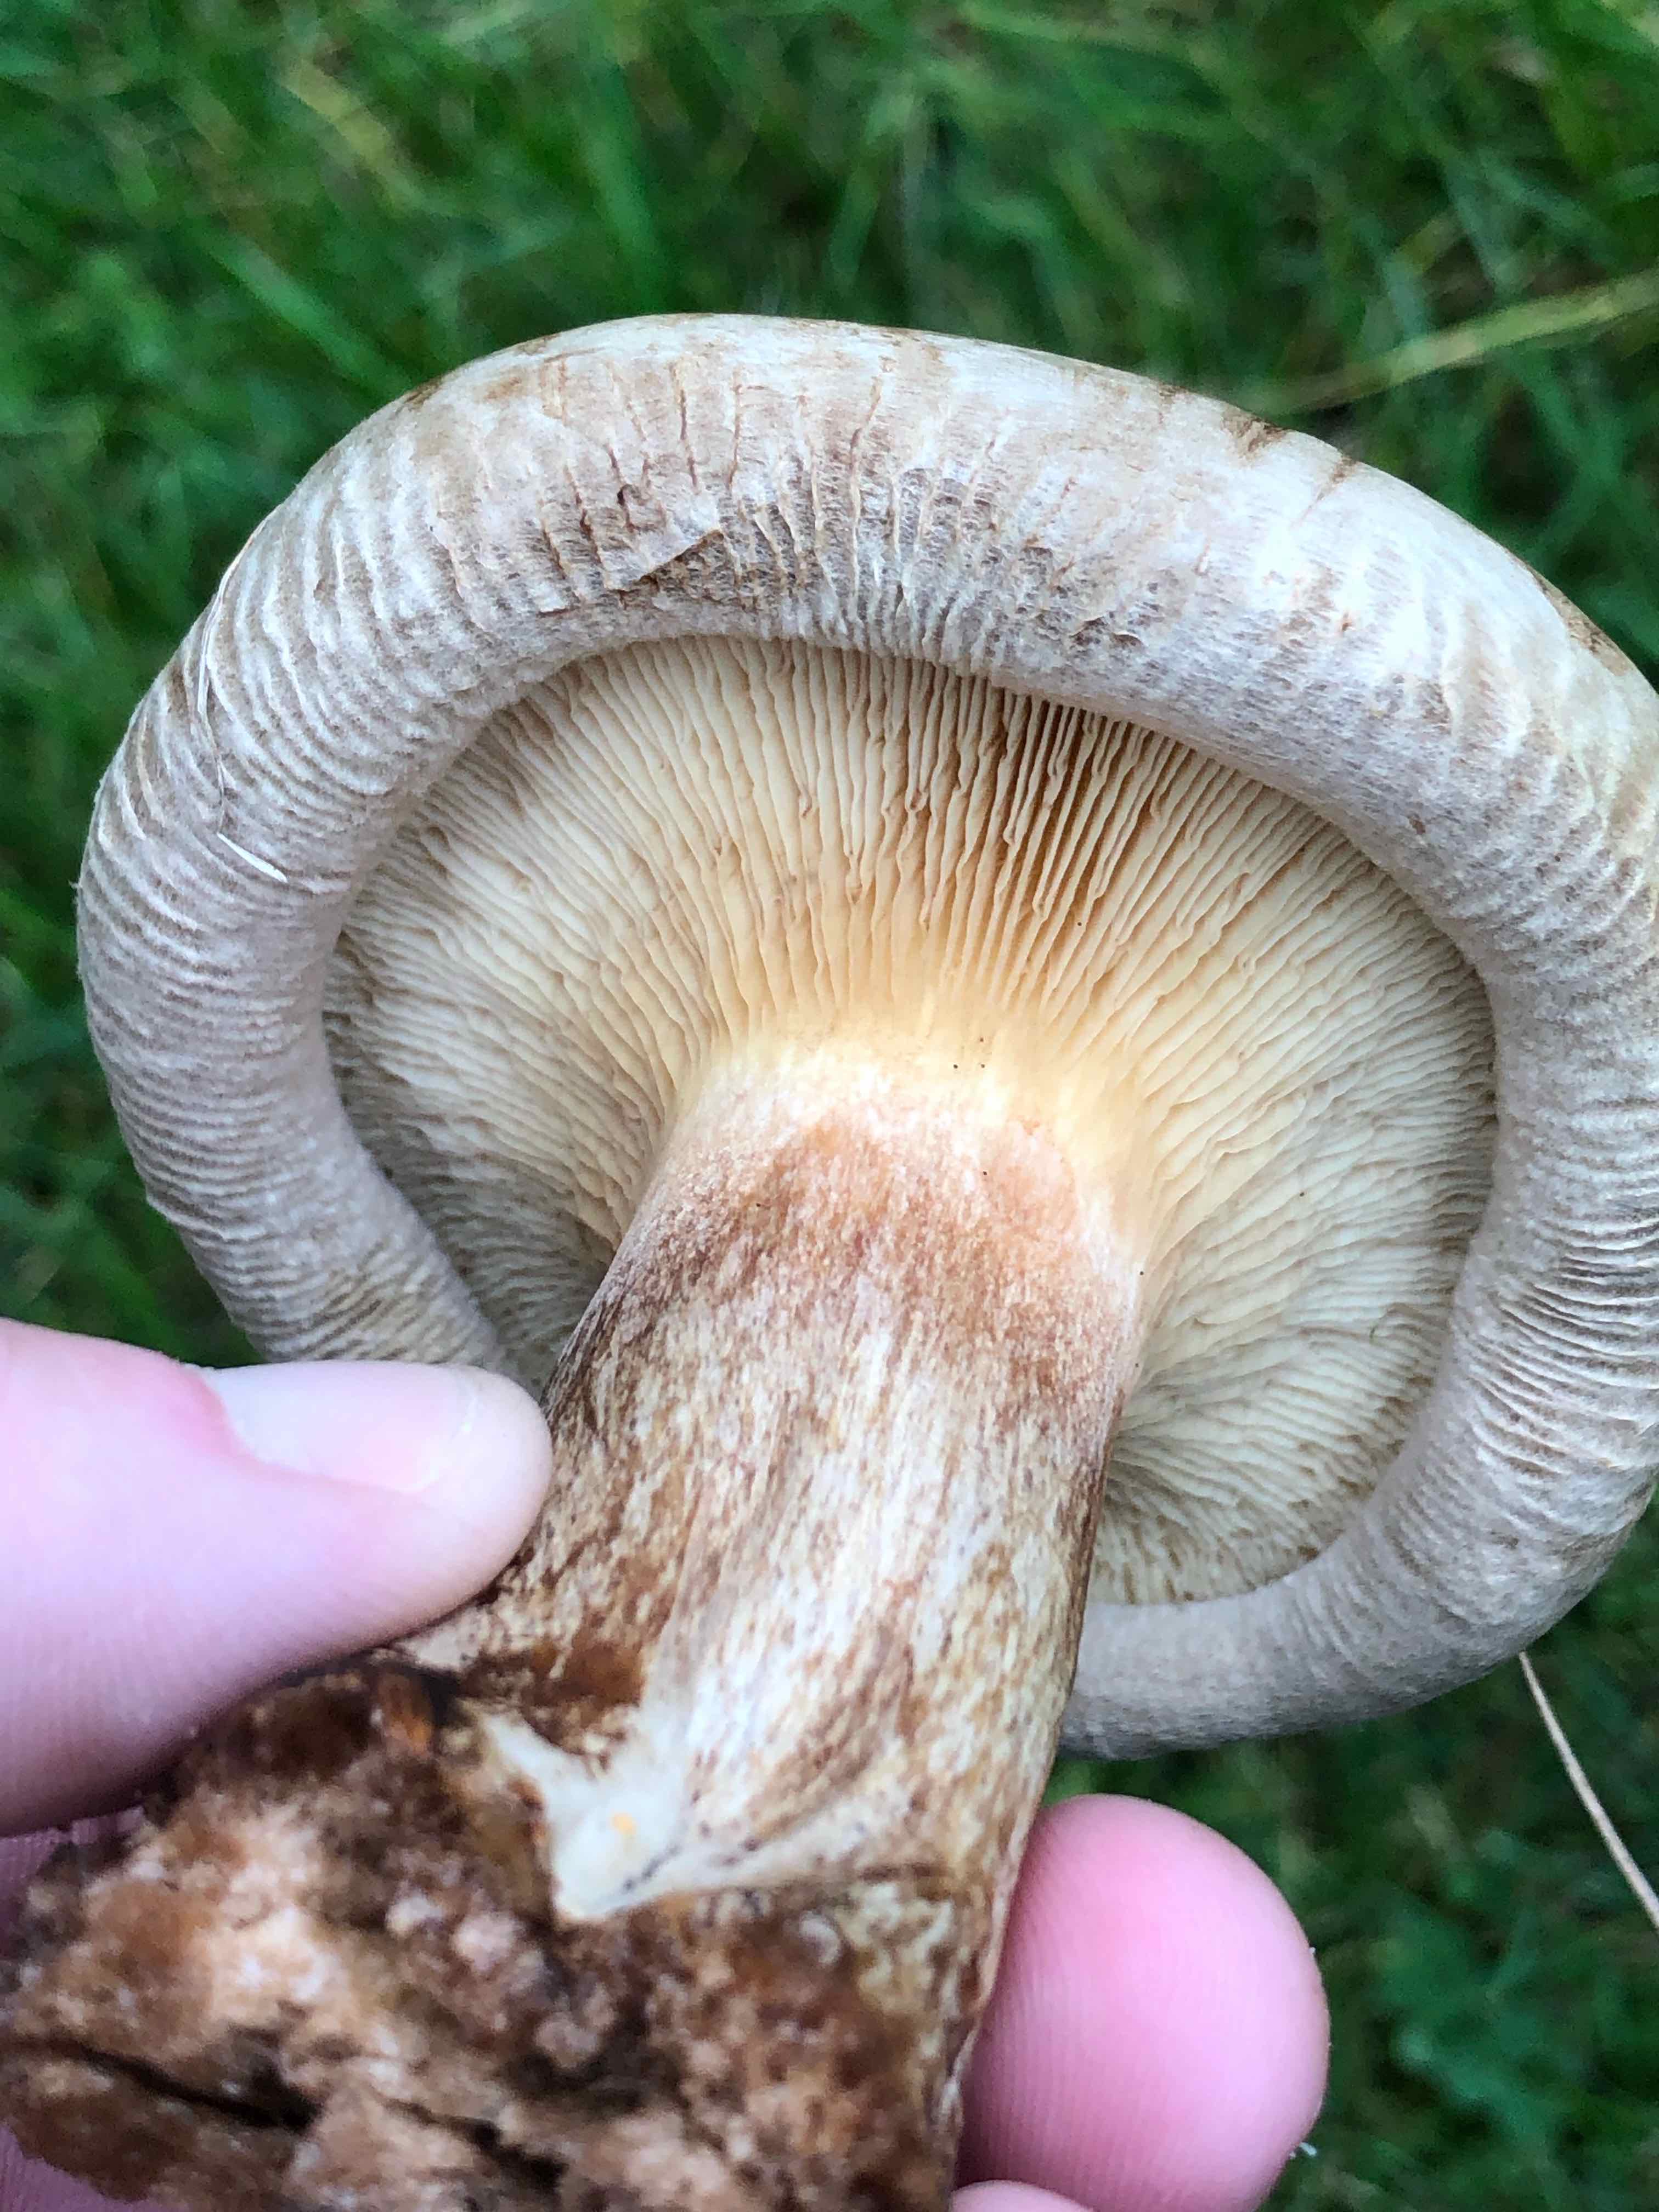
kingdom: Fungi
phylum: Basidiomycota
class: Agaricomycetes
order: Boletales
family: Paxillaceae
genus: Paxillus
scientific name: Paxillus
